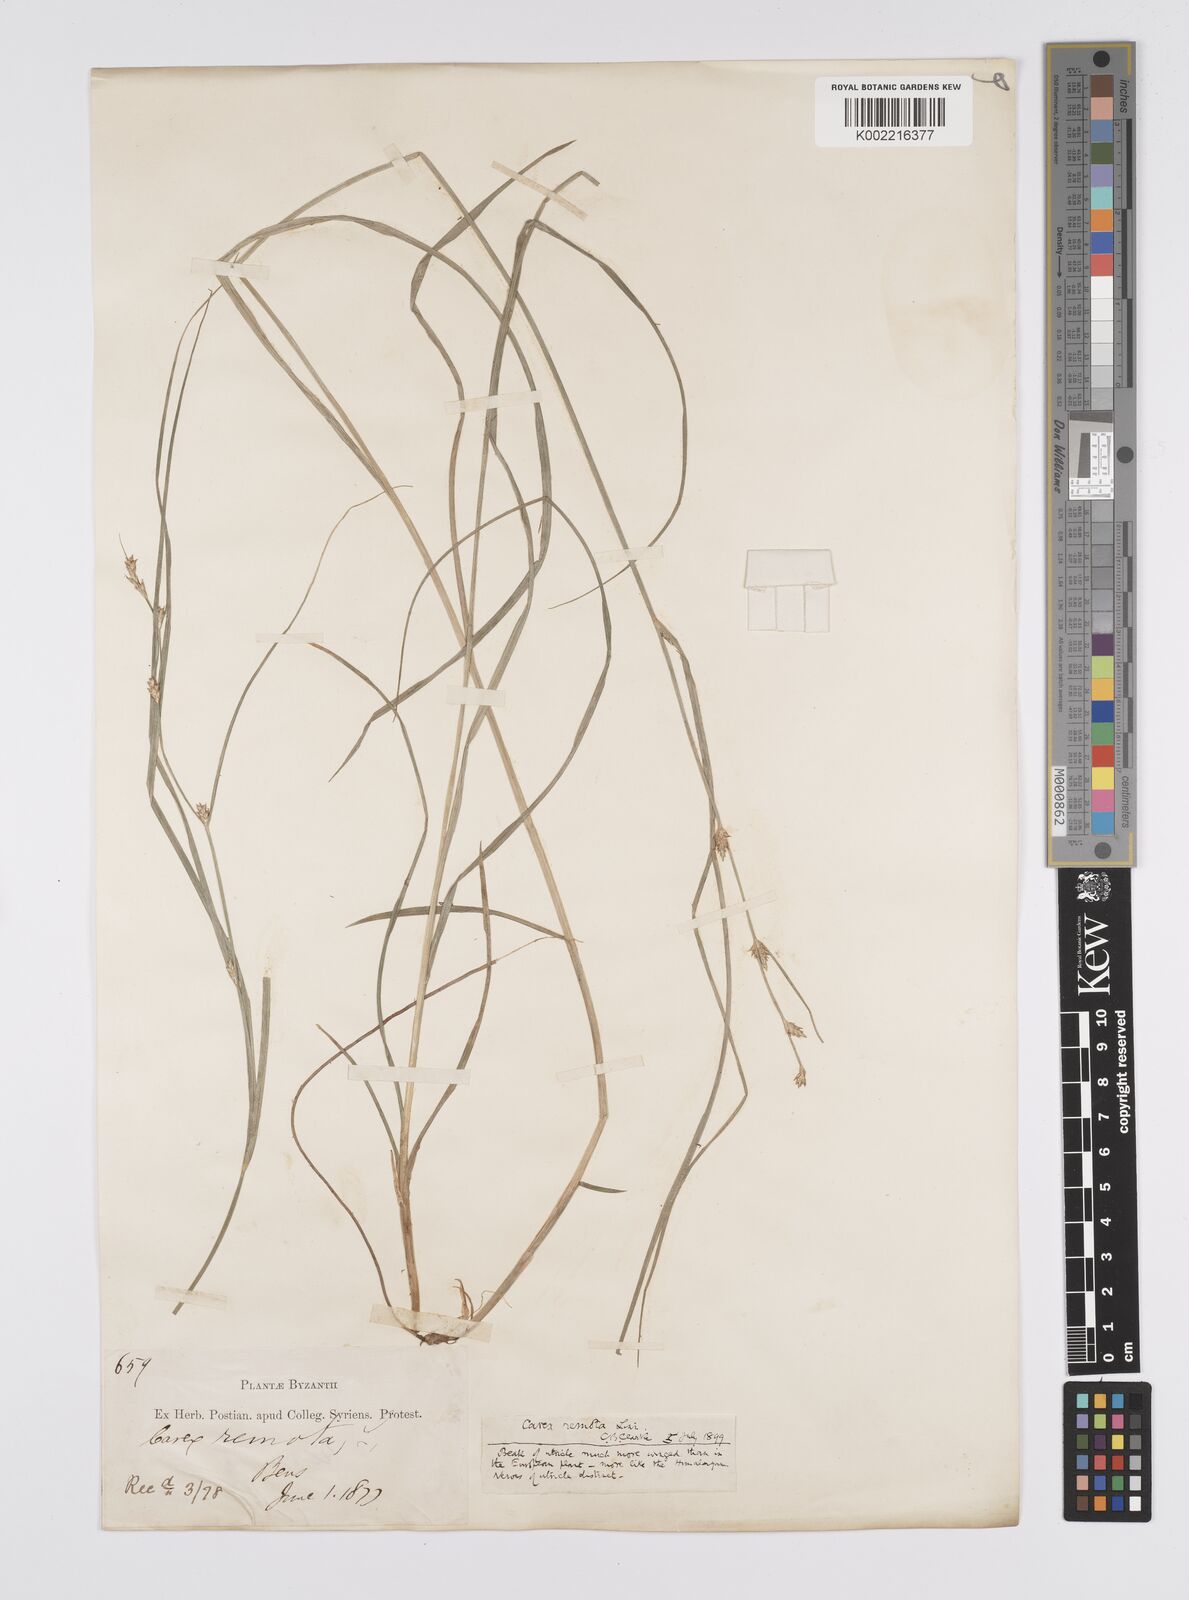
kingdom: Plantae
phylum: Tracheophyta
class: Liliopsida
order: Poales
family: Cyperaceae
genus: Carex
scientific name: Carex remota
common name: Remote sedge
